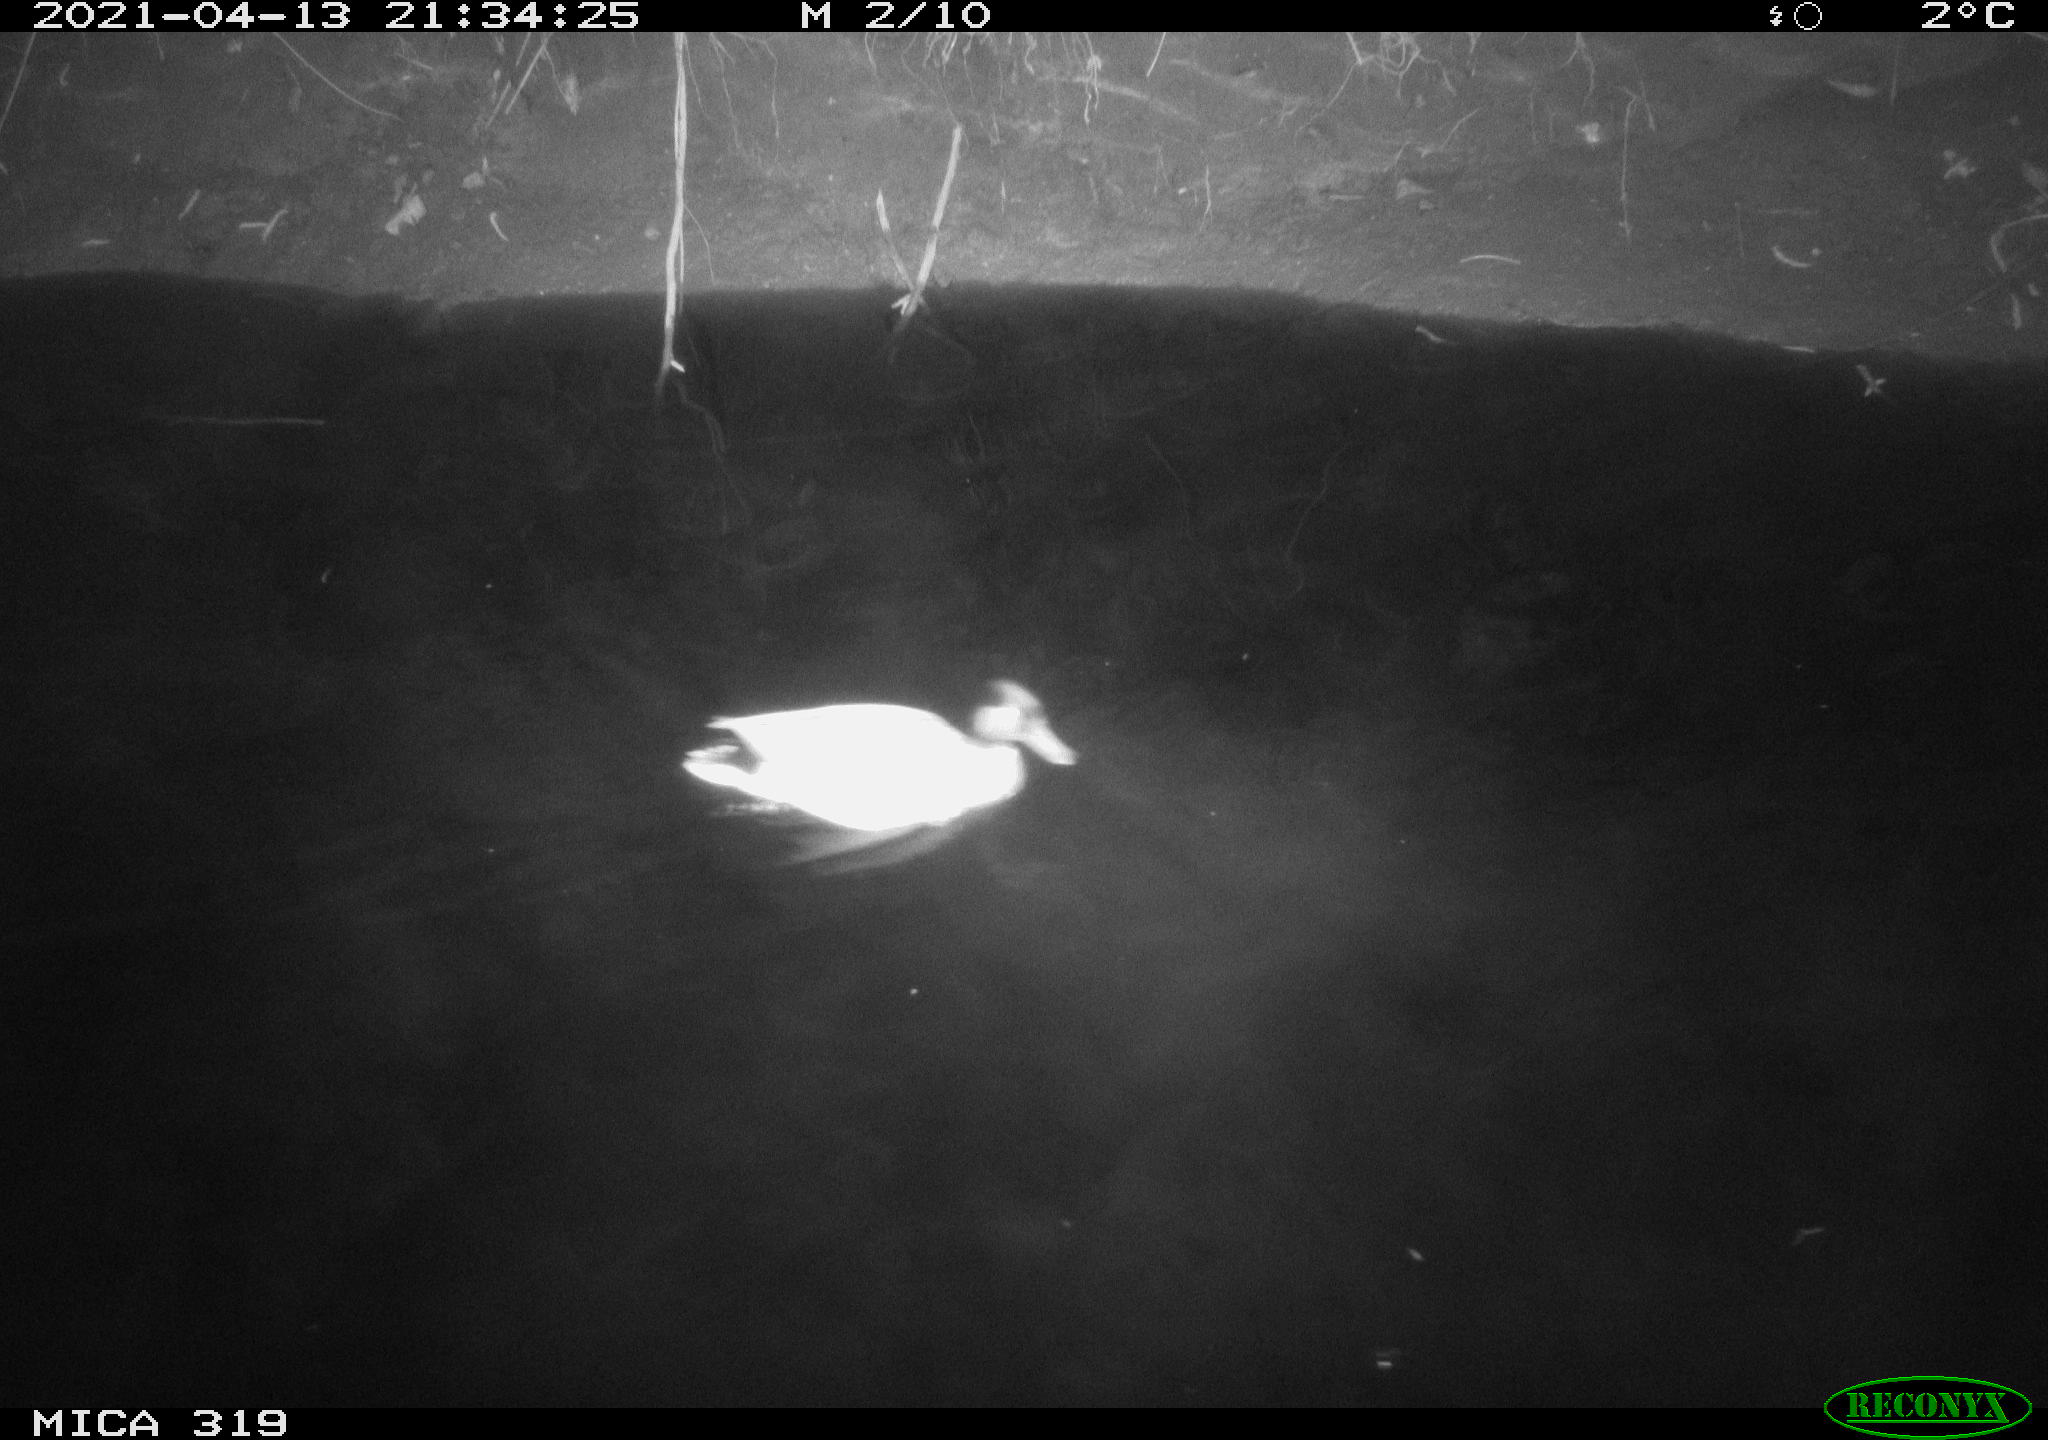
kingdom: Animalia
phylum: Chordata
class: Aves
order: Anseriformes
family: Anatidae
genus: Anas
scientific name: Anas platyrhynchos
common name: Mallard
